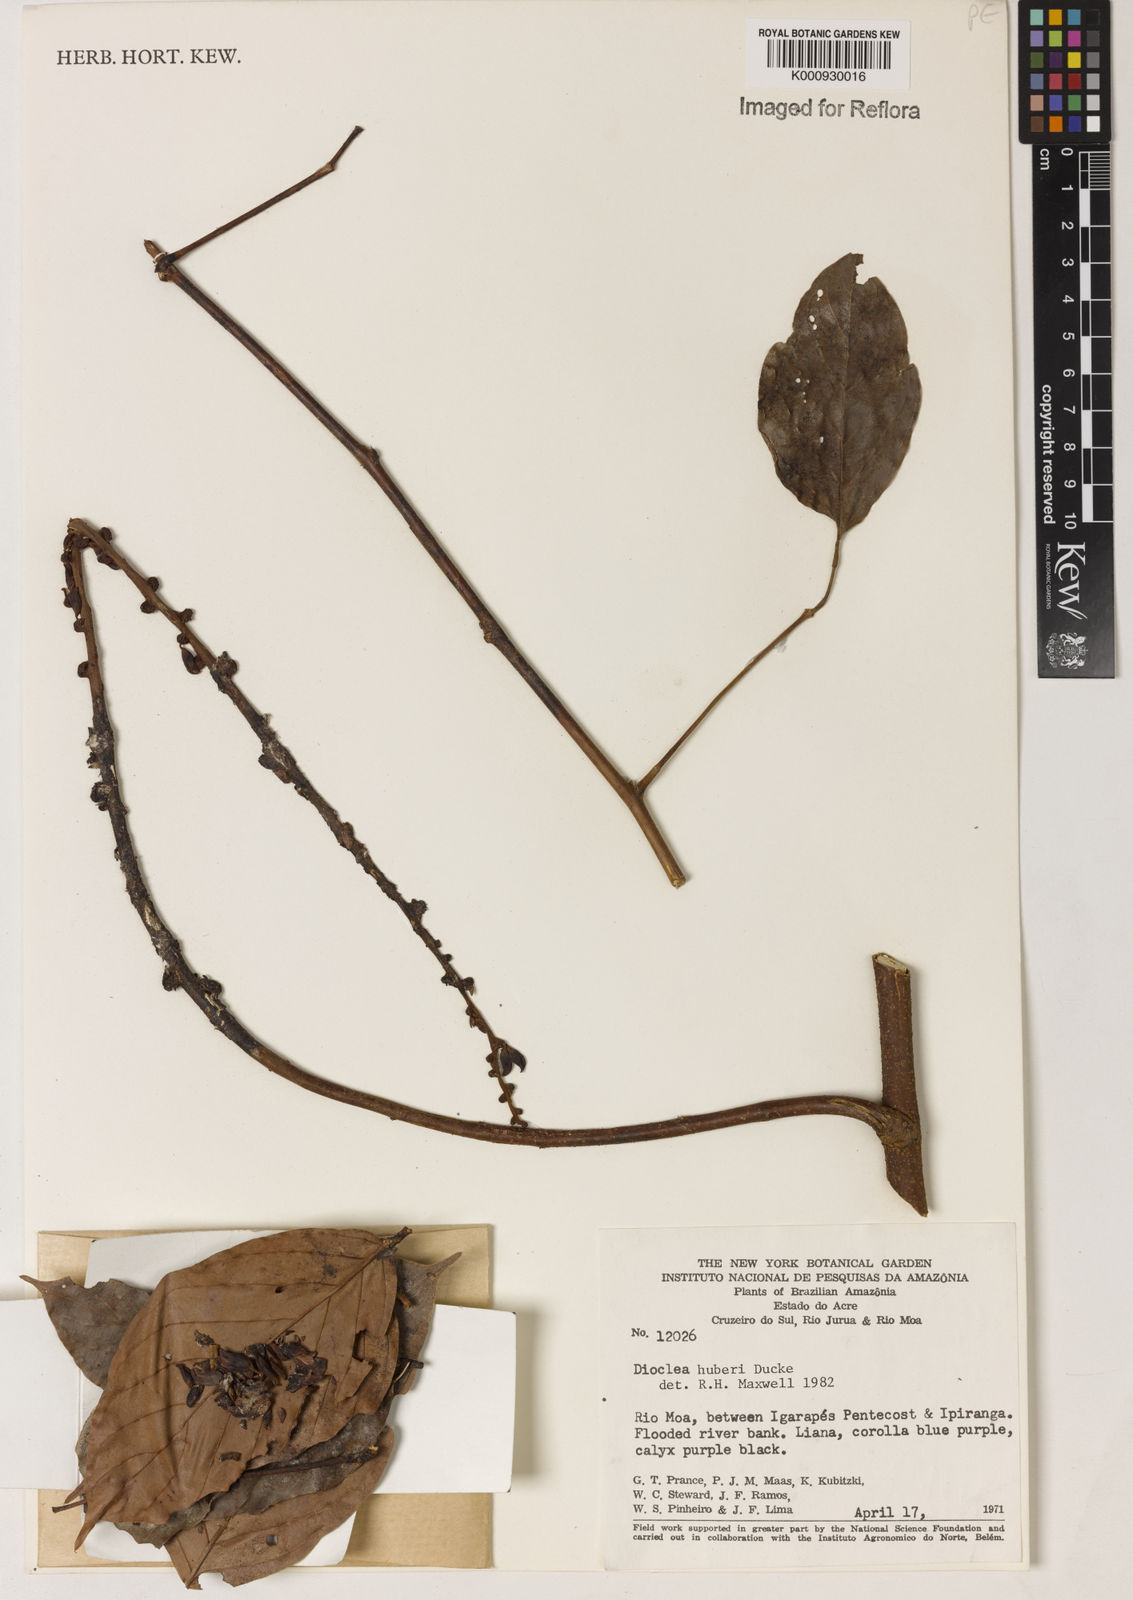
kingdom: Plantae
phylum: Tracheophyta
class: Magnoliopsida
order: Fabales
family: Fabaceae
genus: Macropsychanthus
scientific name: Macropsychanthus huberi
